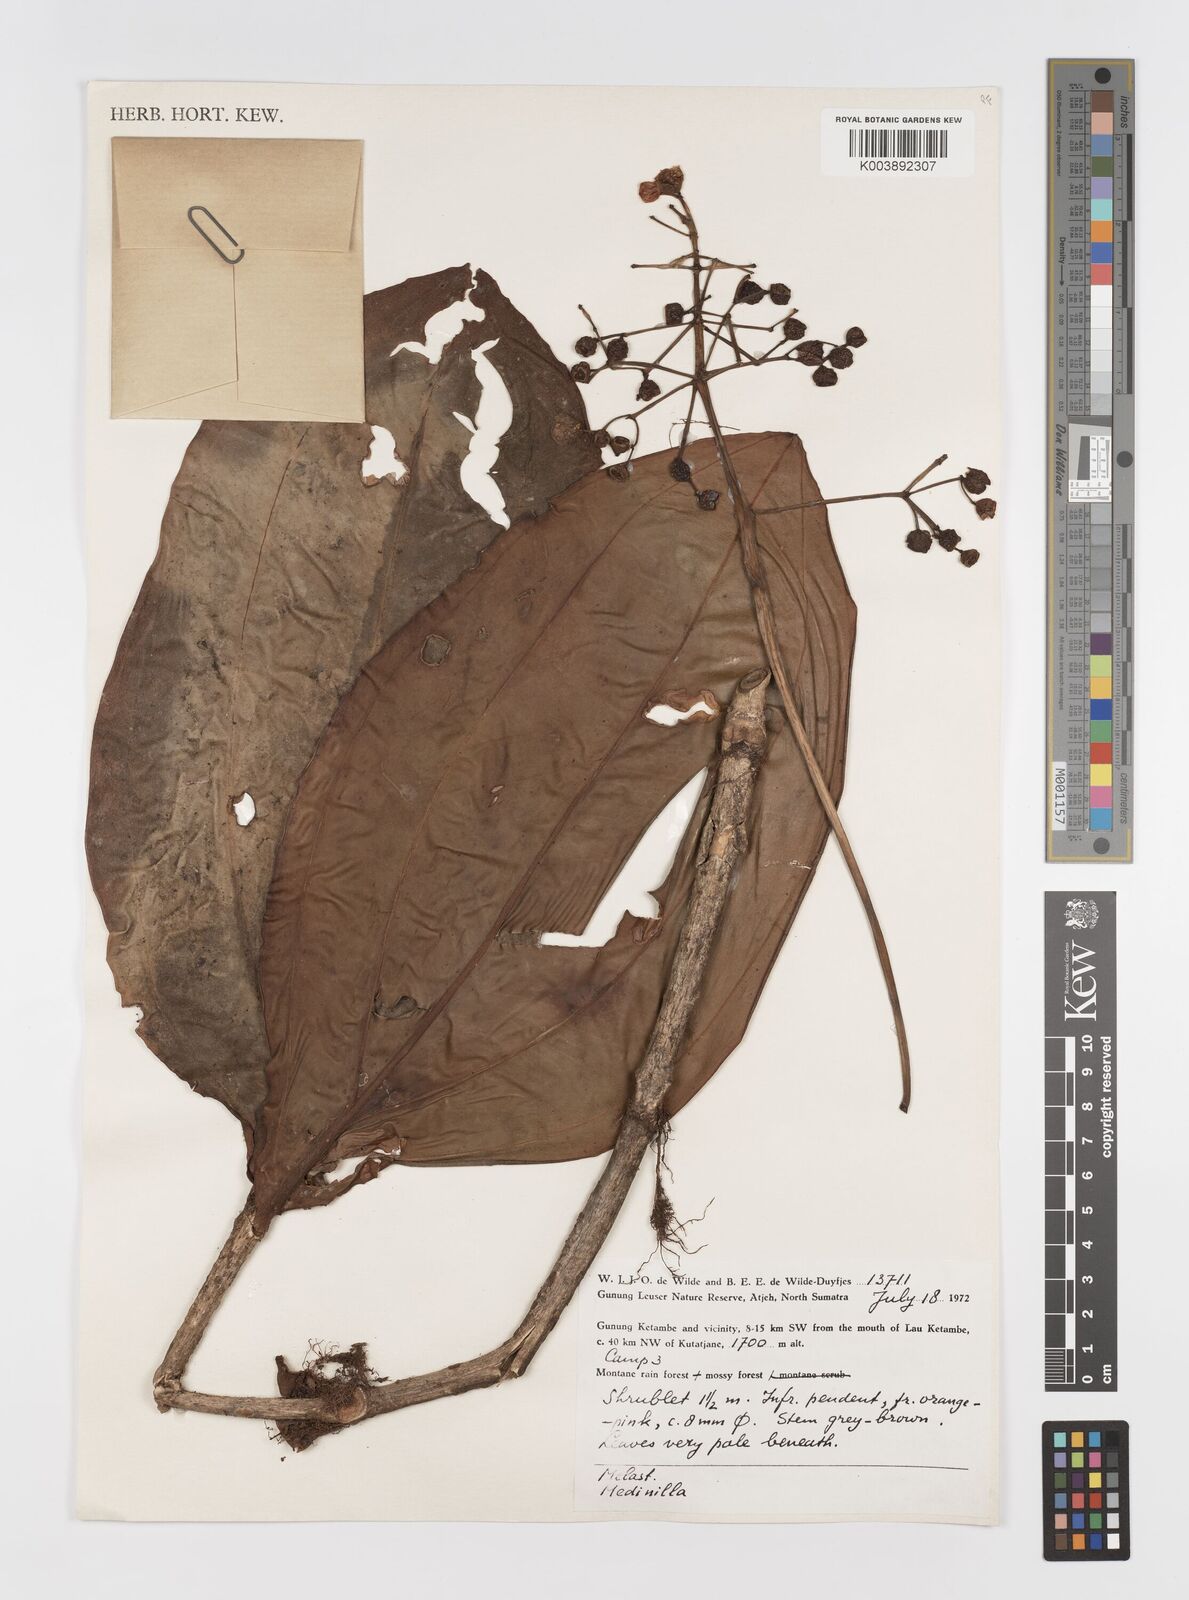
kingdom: Plantae
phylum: Tracheophyta
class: Magnoliopsida
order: Myrtales
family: Melastomataceae
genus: Medinilla
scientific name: Medinilla
